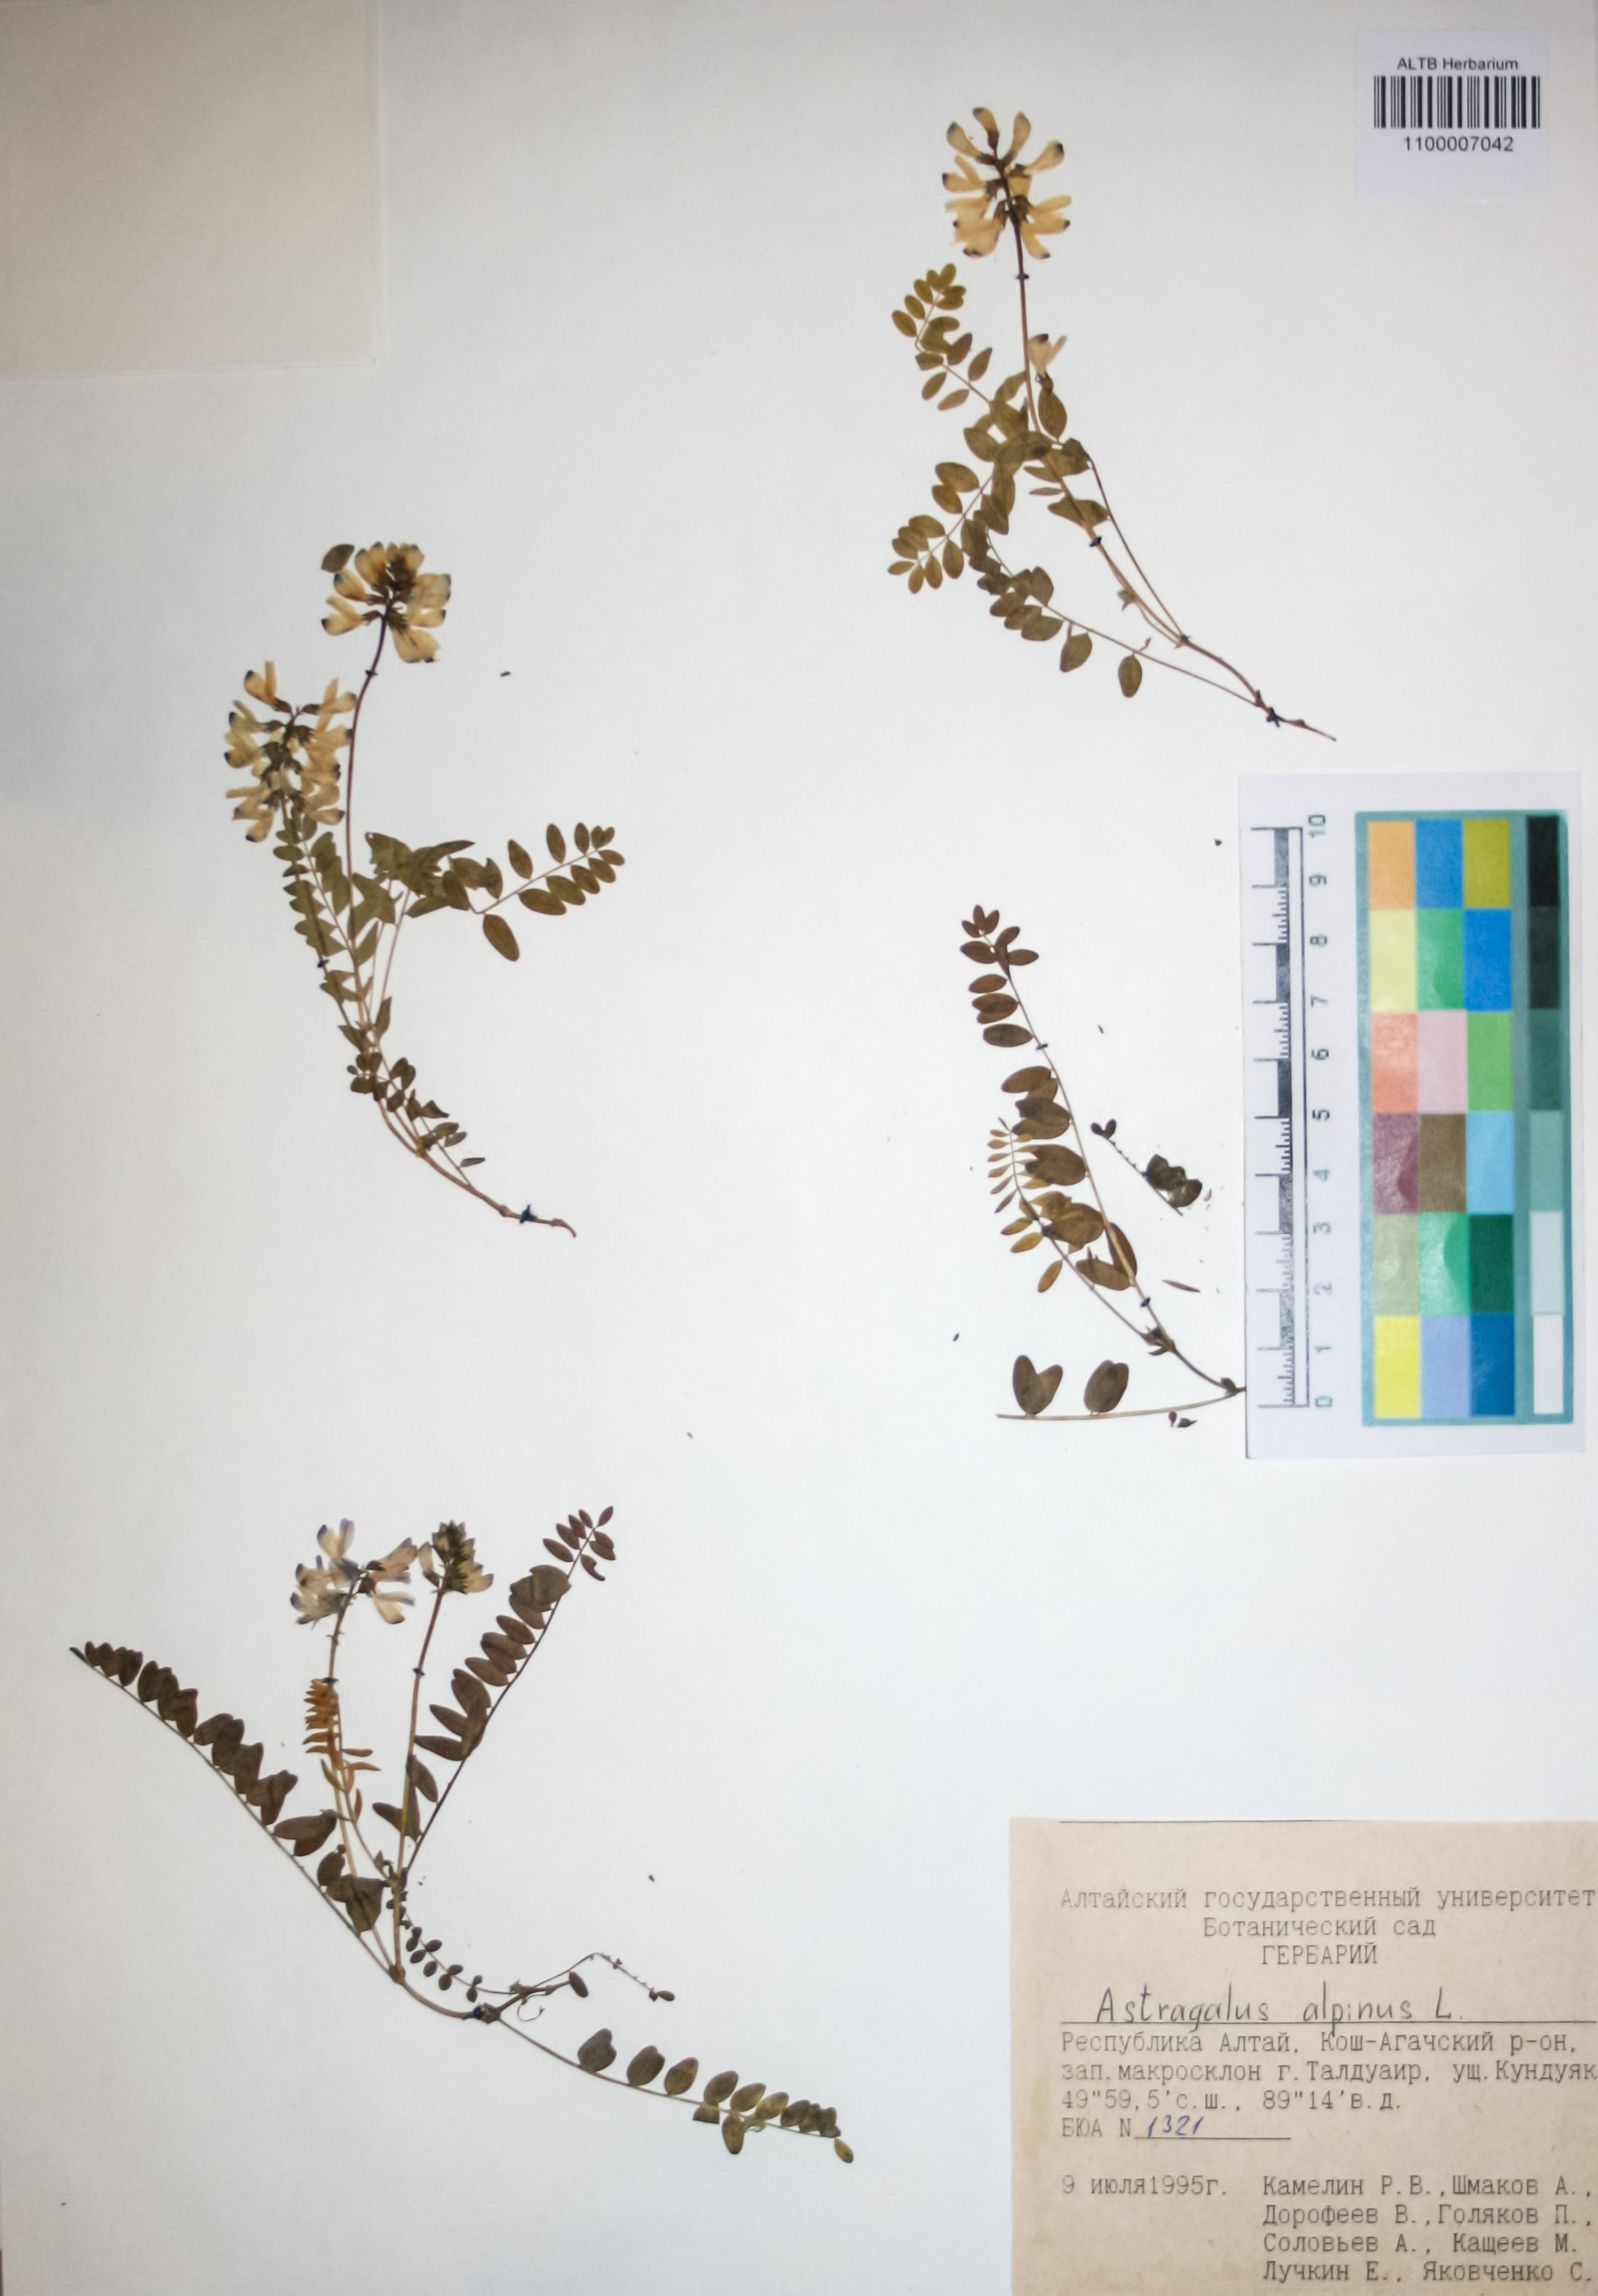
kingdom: Plantae
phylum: Tracheophyta
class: Magnoliopsida
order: Fabales
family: Fabaceae
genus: Astragalus
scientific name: Astragalus alpinus
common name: Alpine milk-vetch
